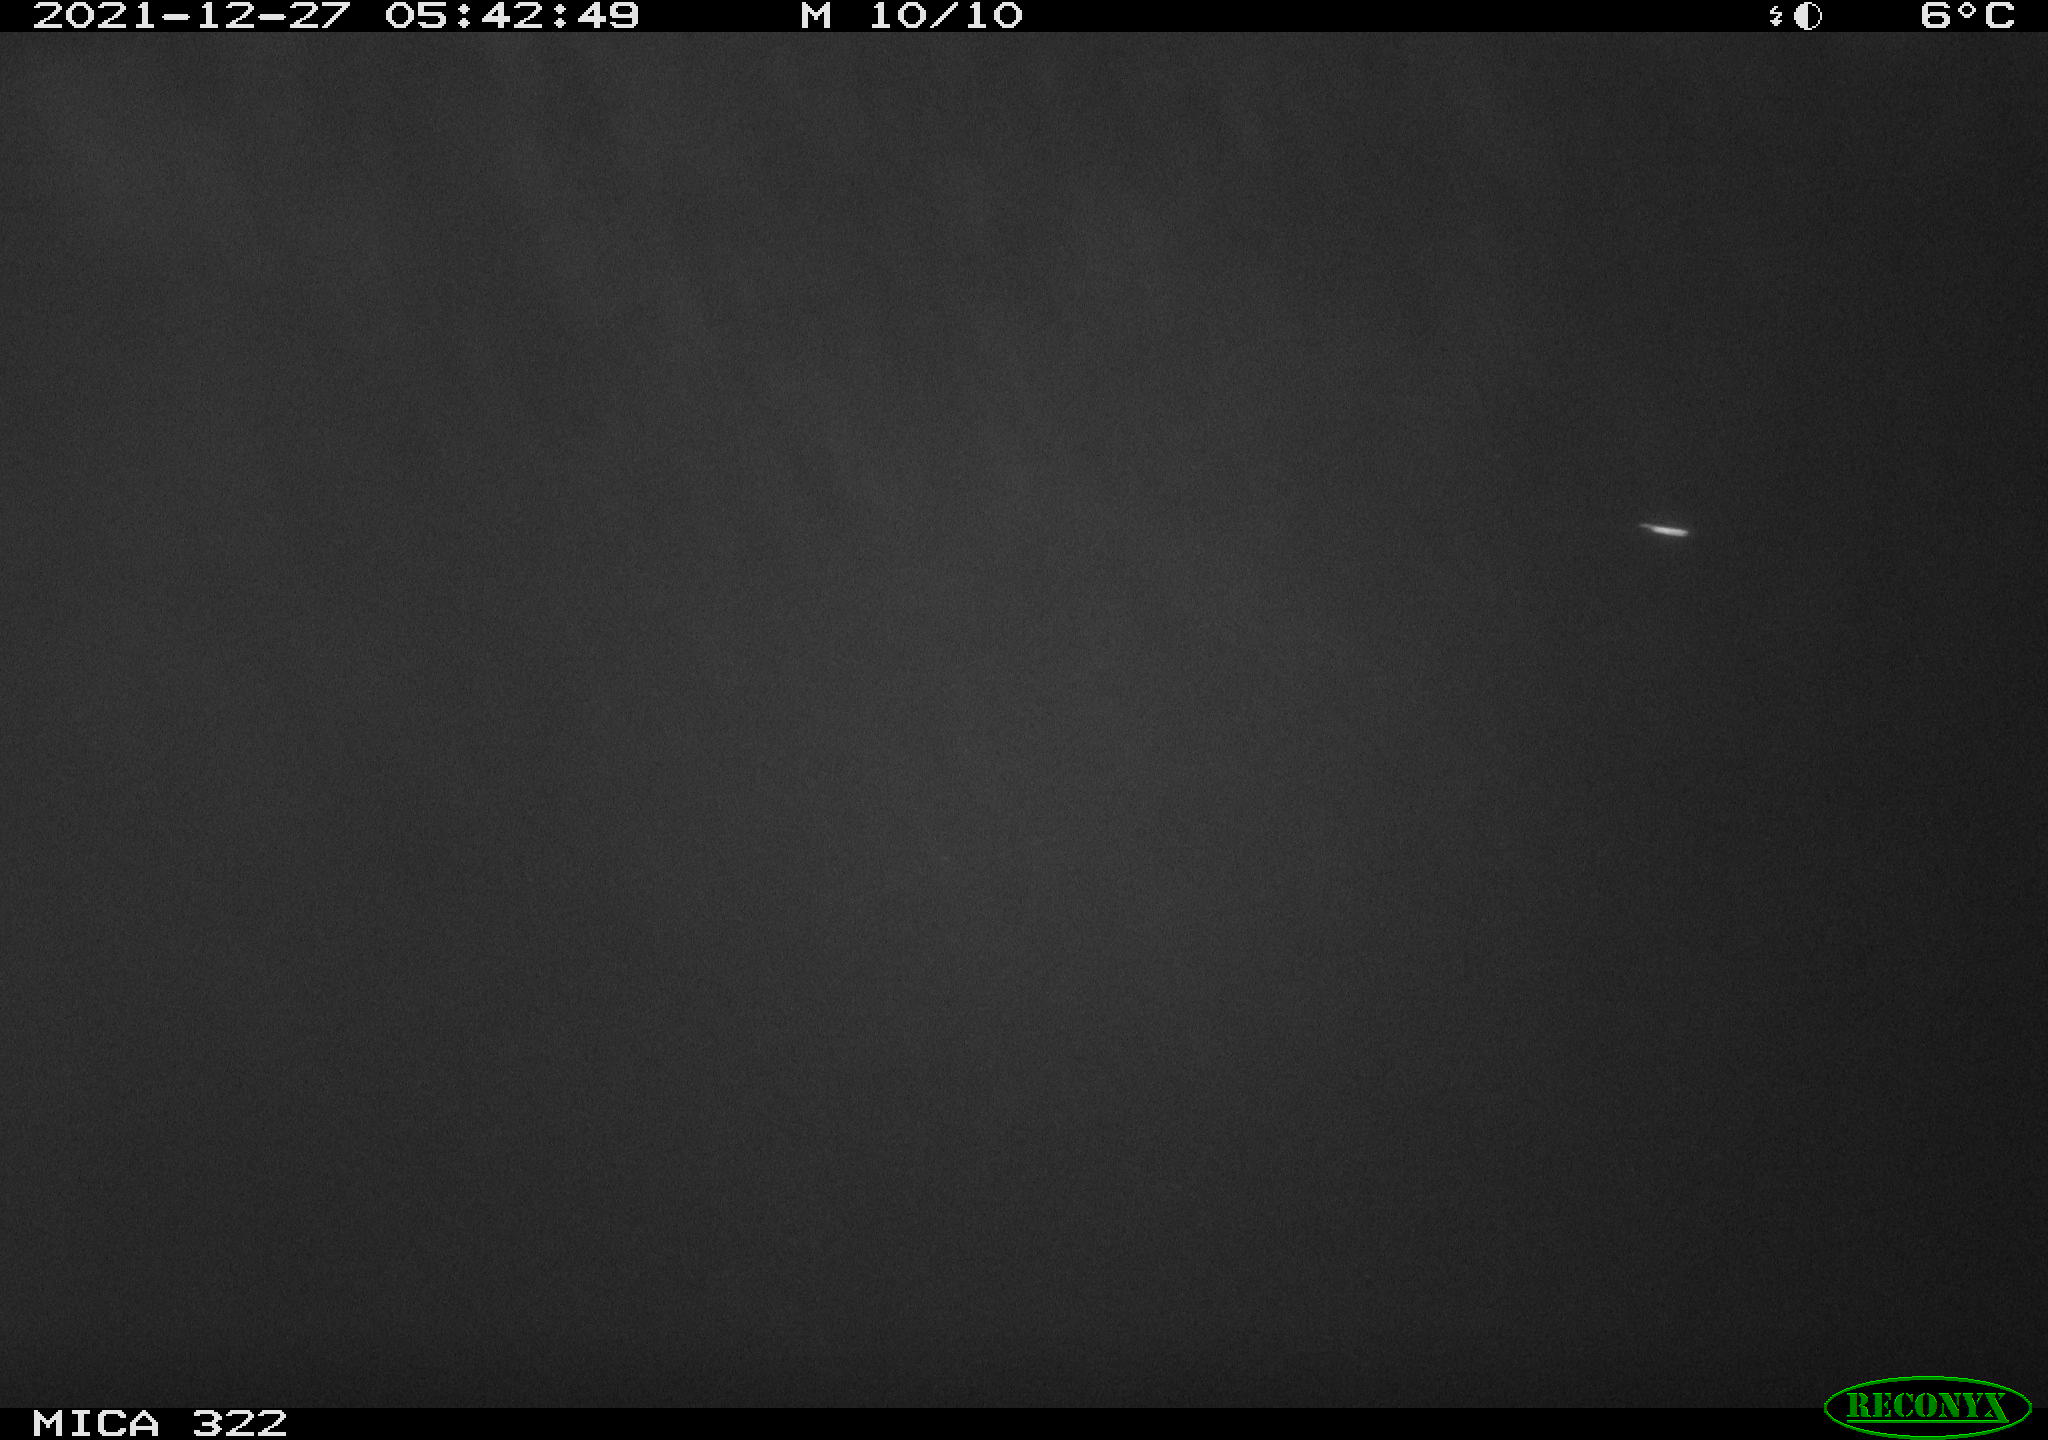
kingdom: Animalia
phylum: Chordata
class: Mammalia
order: Rodentia
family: Muridae
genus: Rattus
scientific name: Rattus norvegicus
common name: Brown rat
